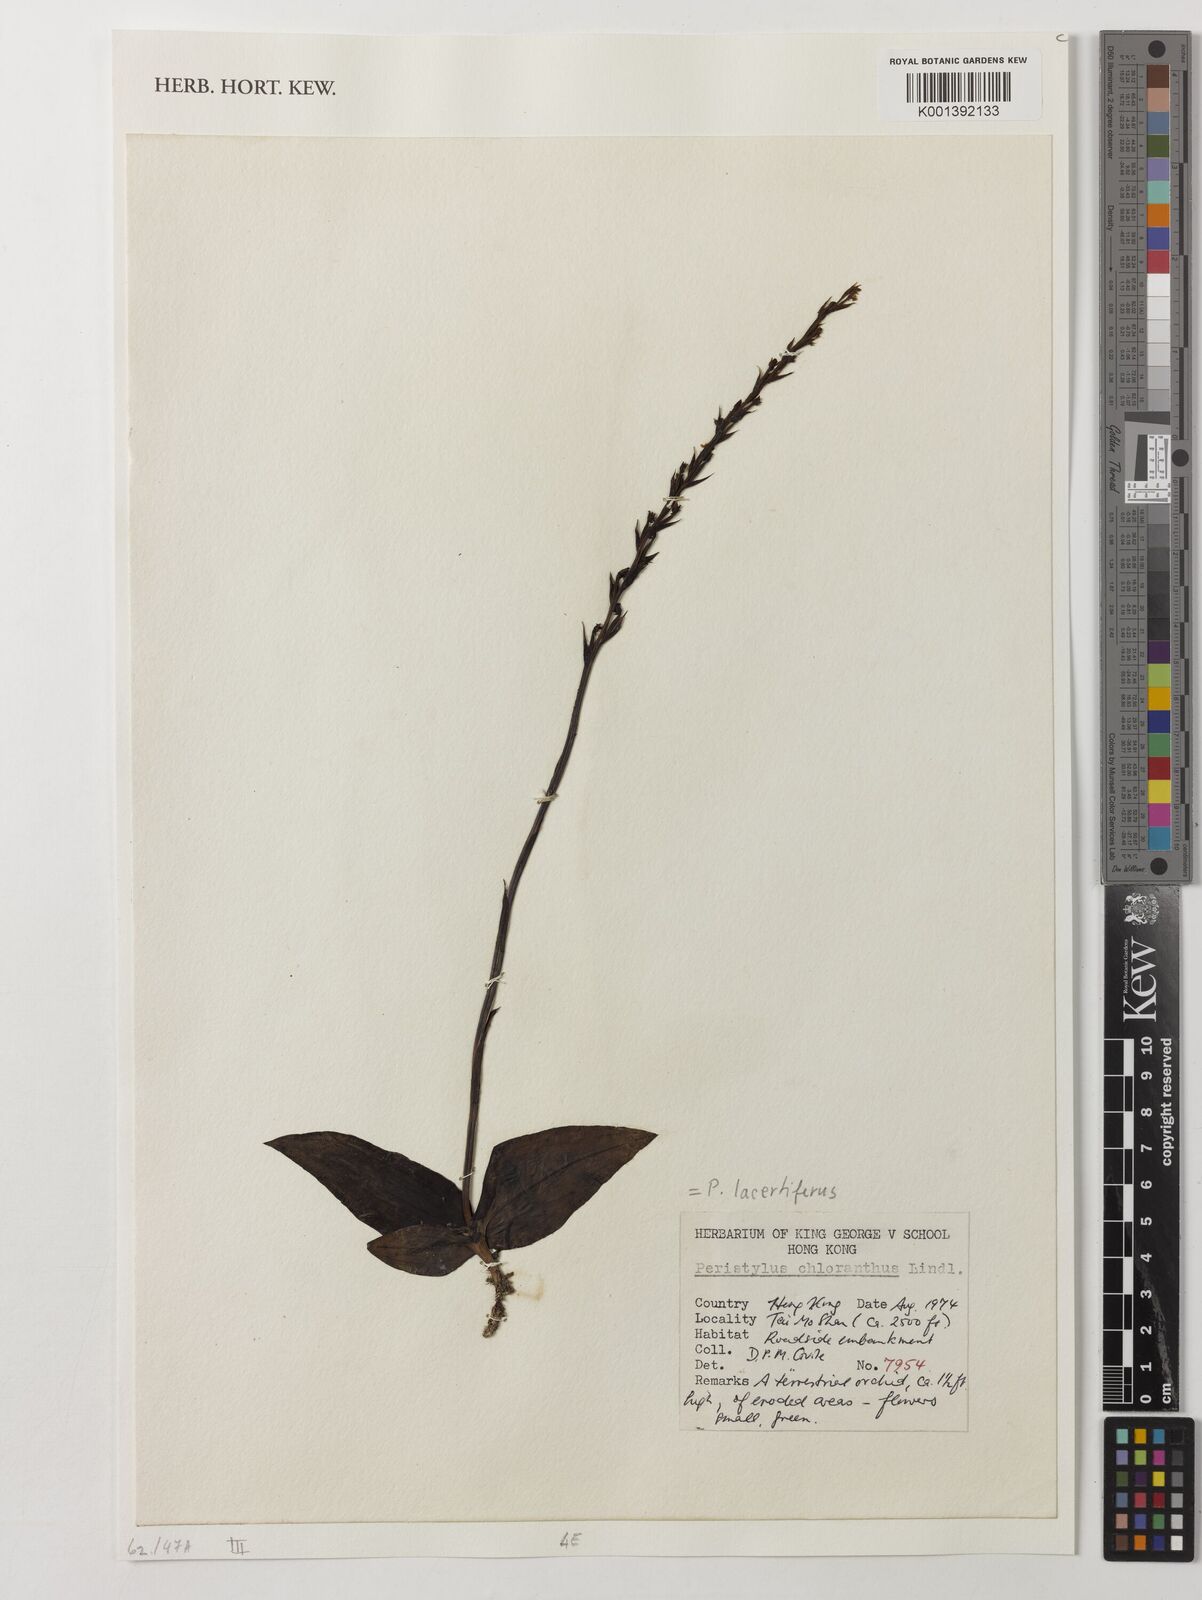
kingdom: Plantae
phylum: Tracheophyta
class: Liliopsida
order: Asparagales
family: Orchidaceae
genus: Peristylus
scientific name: Peristylus
